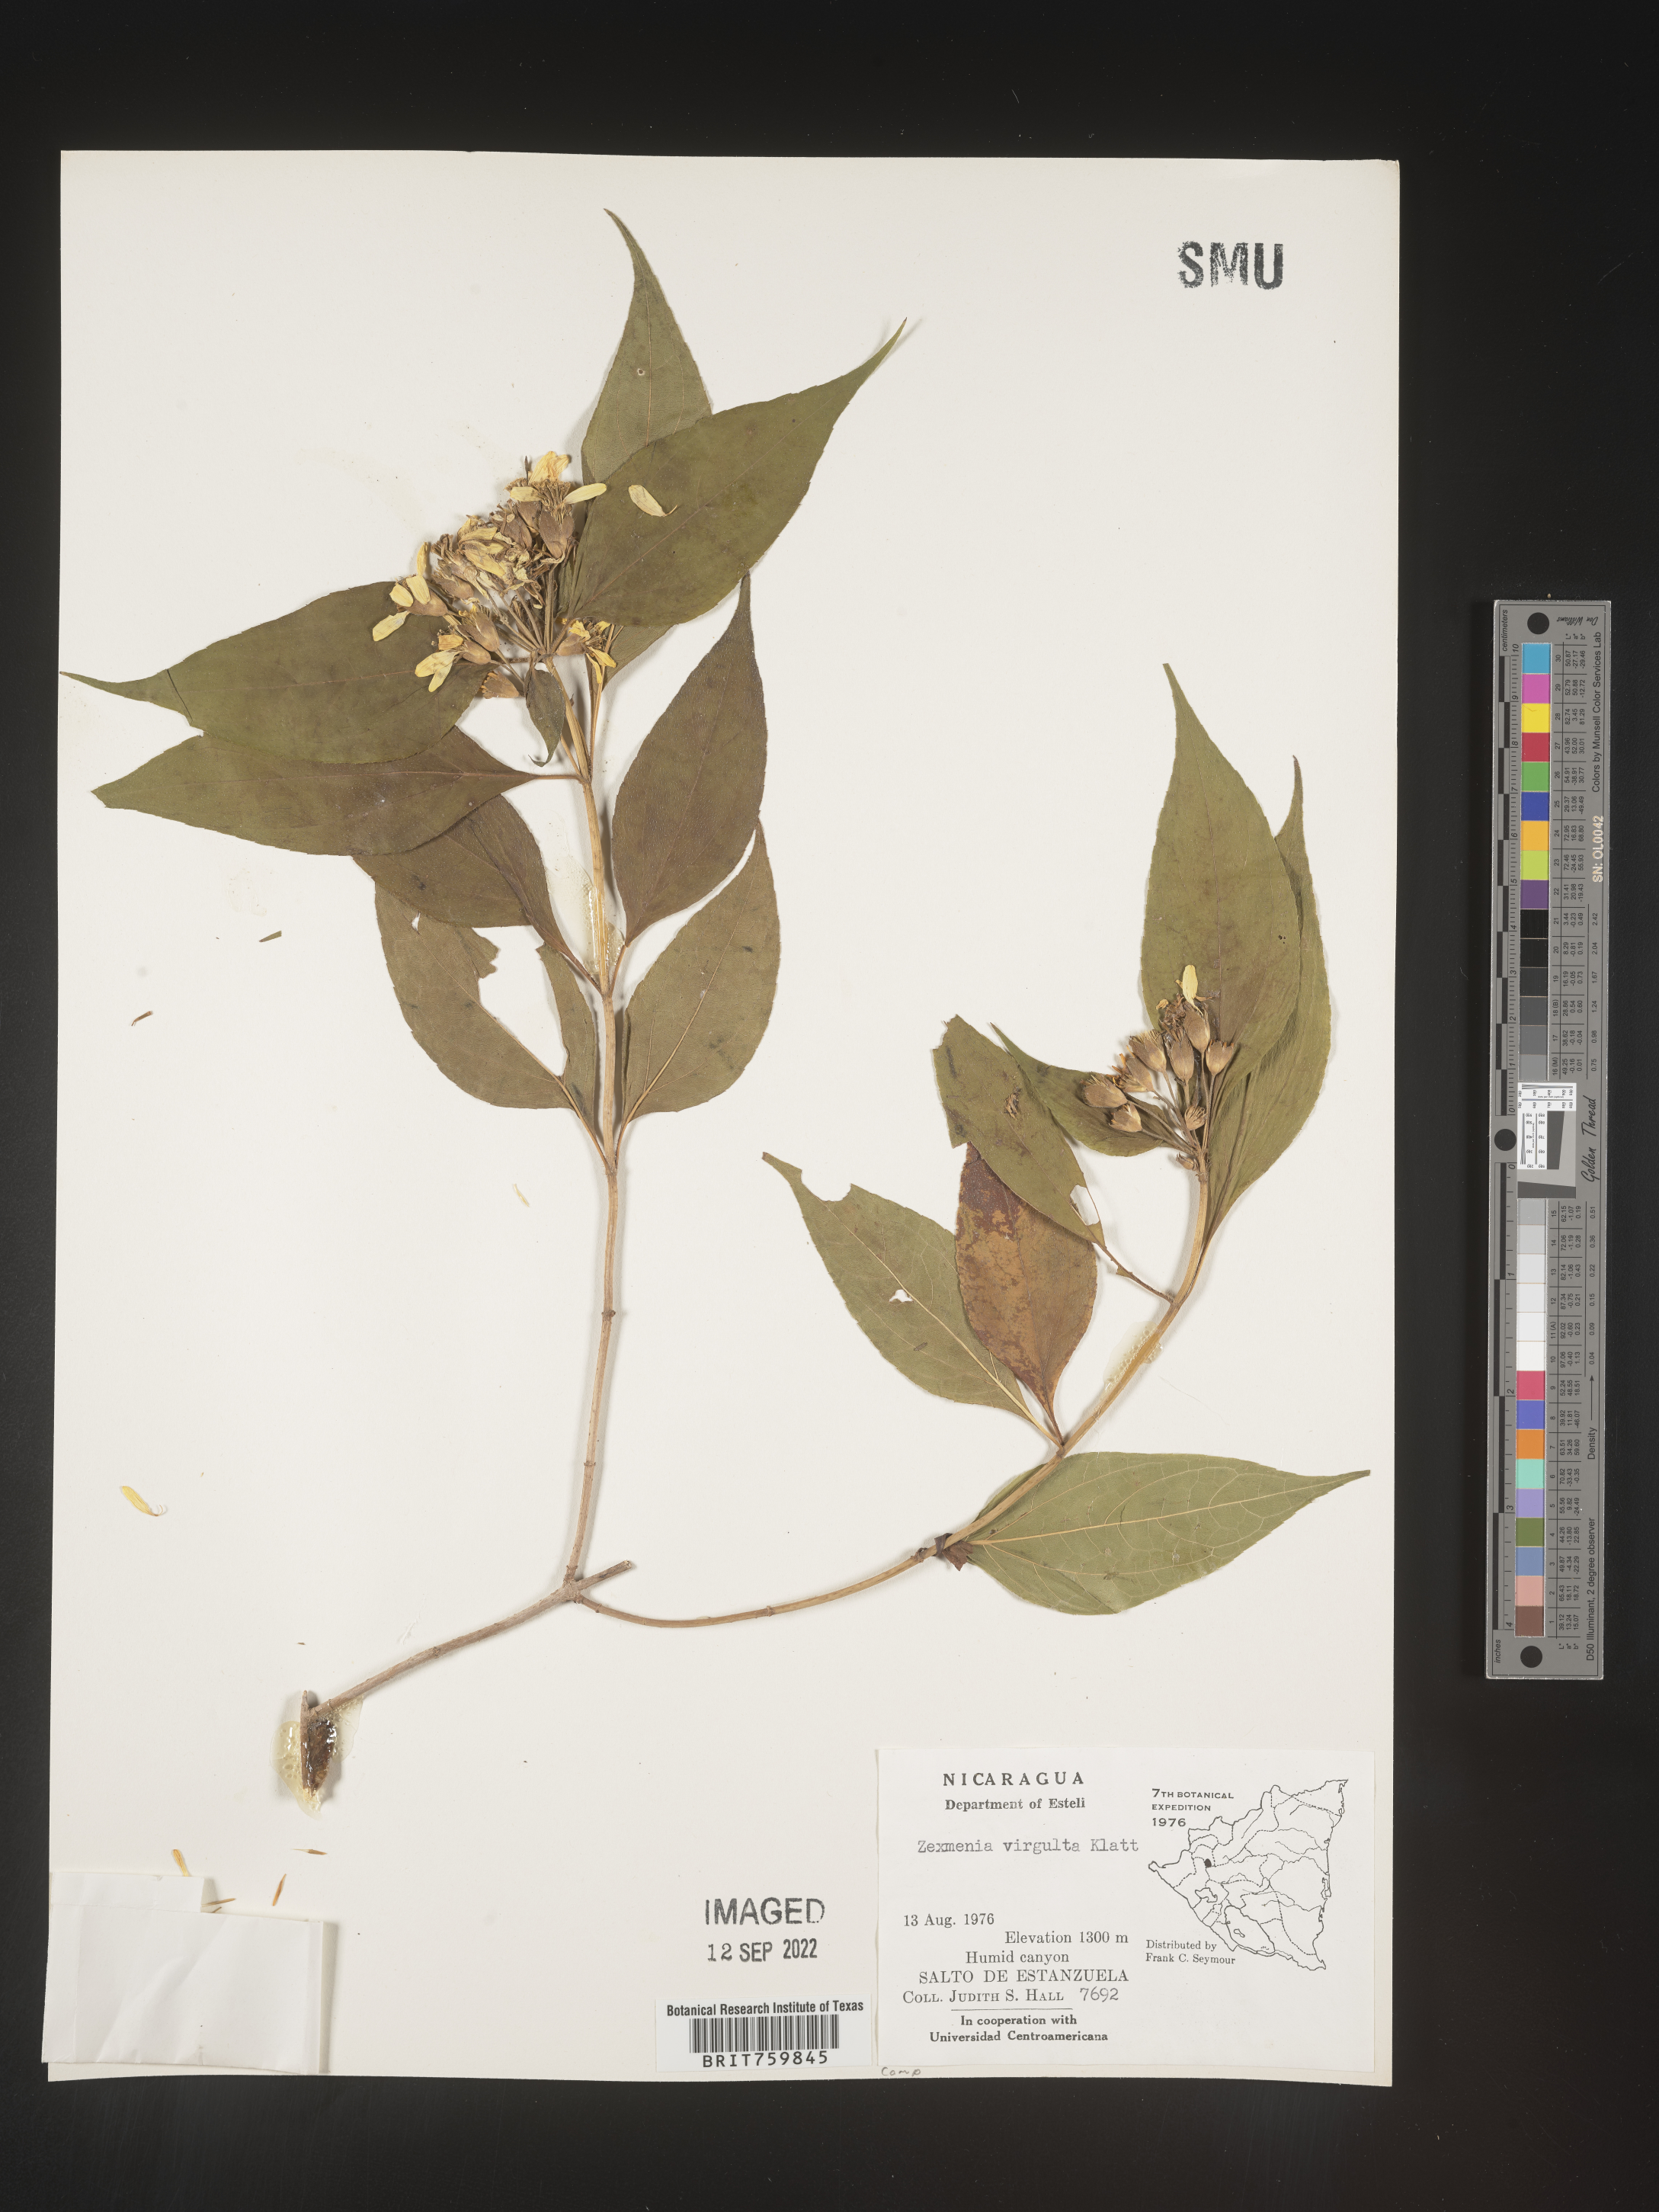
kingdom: Plantae
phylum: Tracheophyta
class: Magnoliopsida
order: Asterales
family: Asteraceae
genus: Zexmenia
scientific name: Zexmenia
